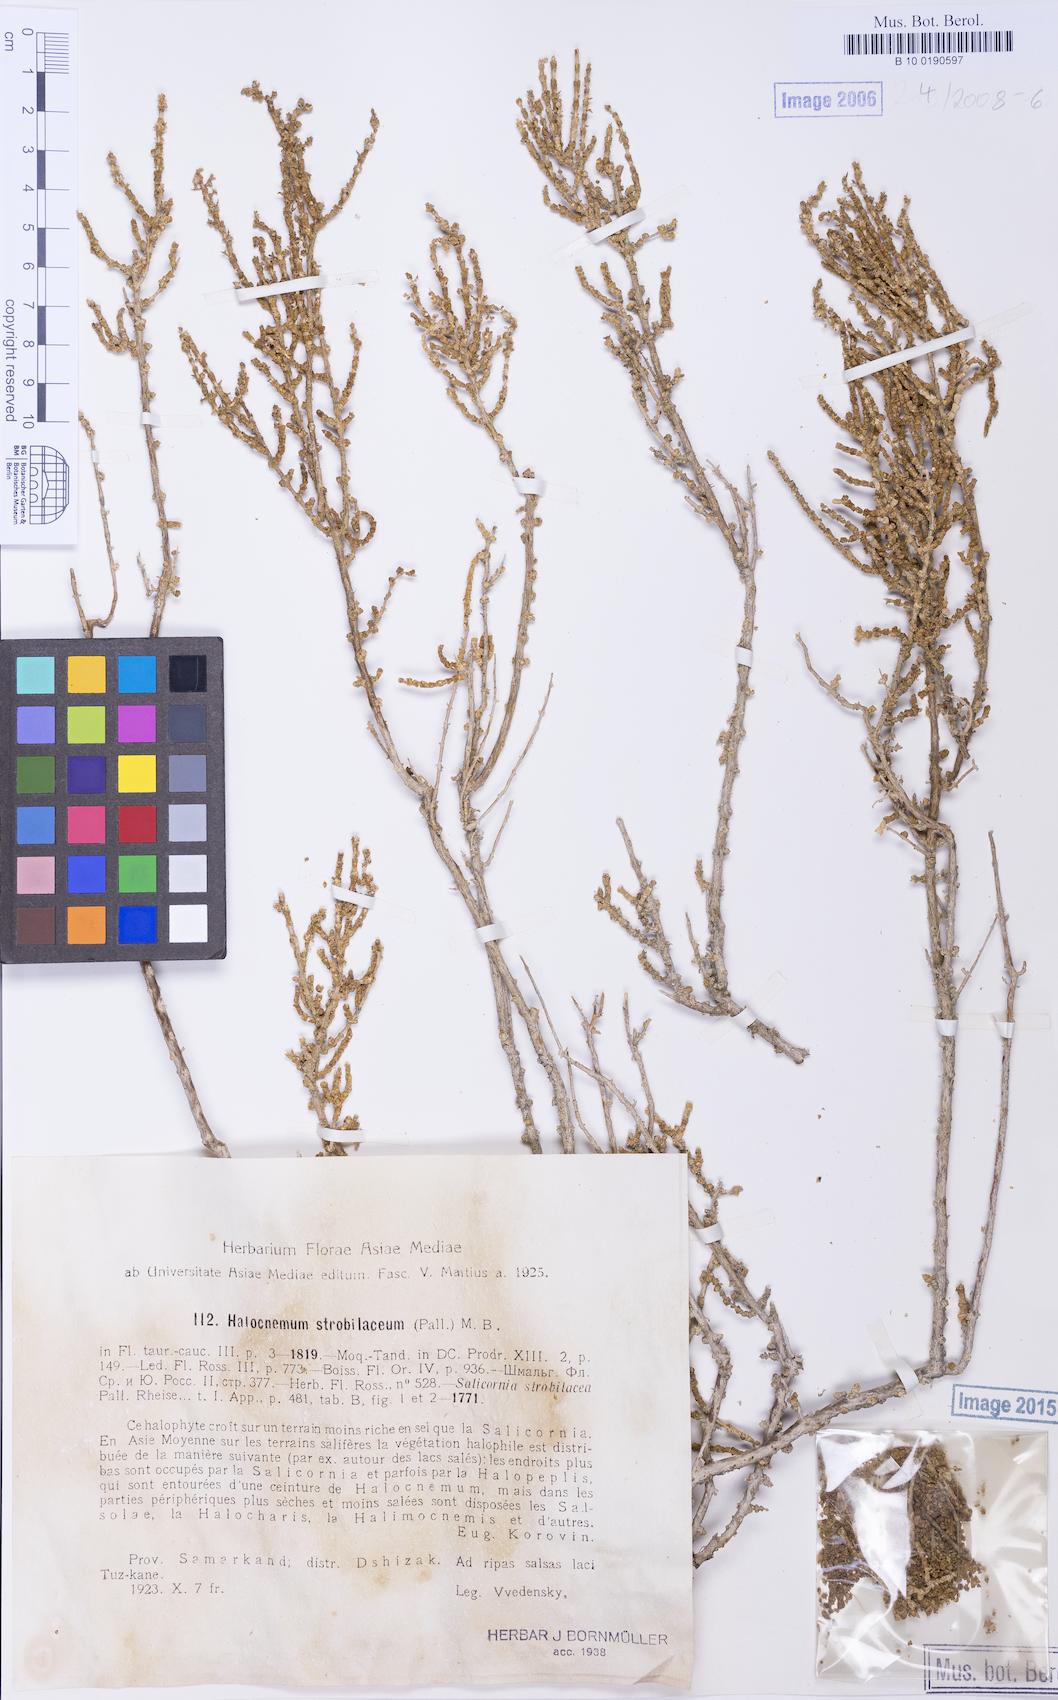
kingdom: Plantae
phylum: Tracheophyta
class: Magnoliopsida
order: Caryophyllales
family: Amaranthaceae
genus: Halocnemum
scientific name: Halocnemum strobilaceum
